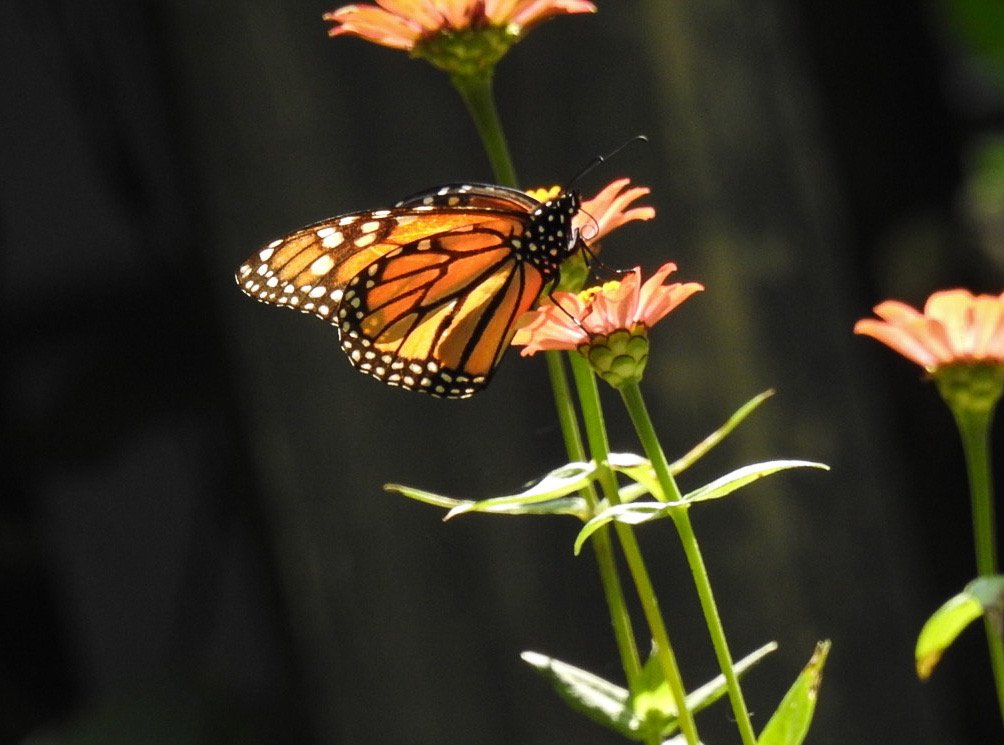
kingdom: Animalia
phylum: Arthropoda
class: Insecta
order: Lepidoptera
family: Nymphalidae
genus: Danaus
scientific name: Danaus plexippus
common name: Monarch
